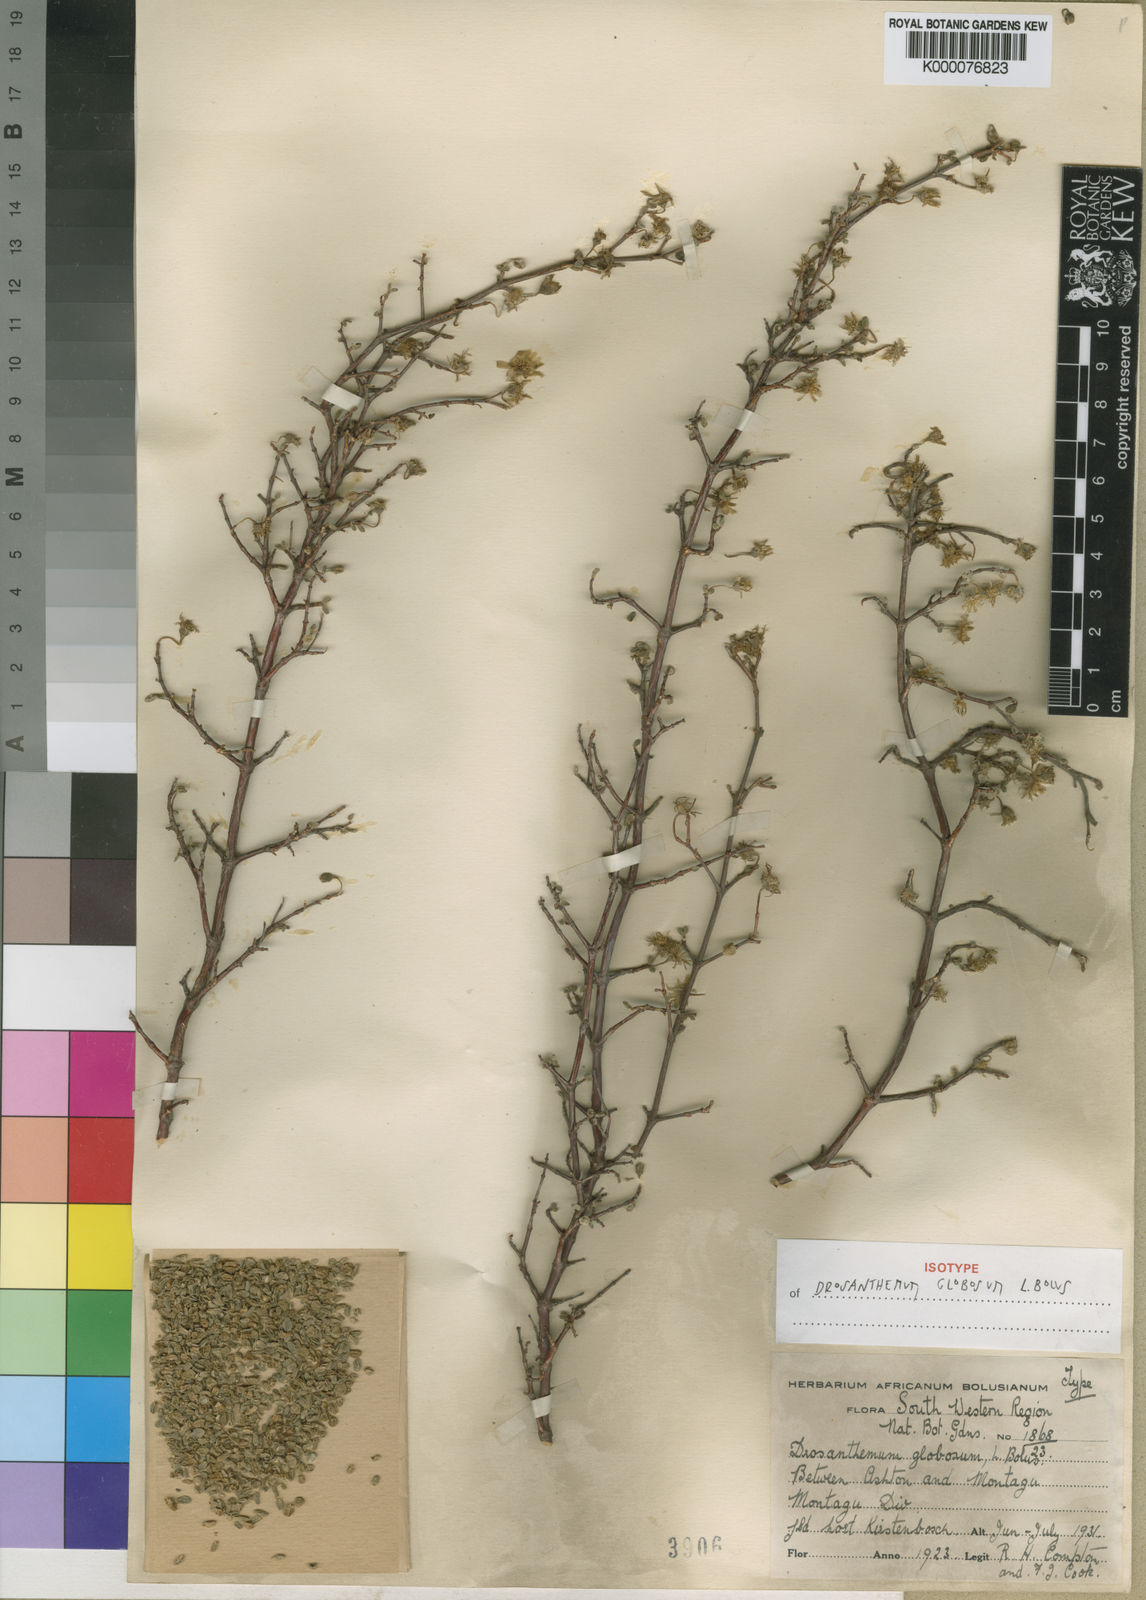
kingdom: Plantae
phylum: Tracheophyta
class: Magnoliopsida
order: Caryophyllales
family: Aizoaceae
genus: Drosanthemum
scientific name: Drosanthemum globosum
